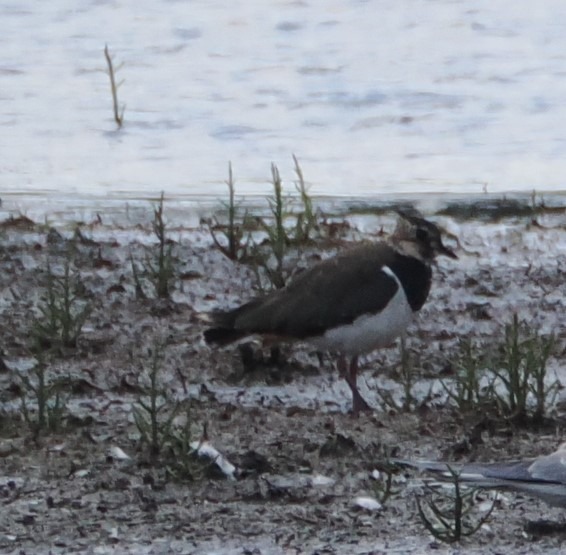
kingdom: Animalia
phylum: Chordata
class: Aves
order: Charadriiformes
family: Charadriidae
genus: Vanellus
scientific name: Vanellus vanellus
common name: Vibe
